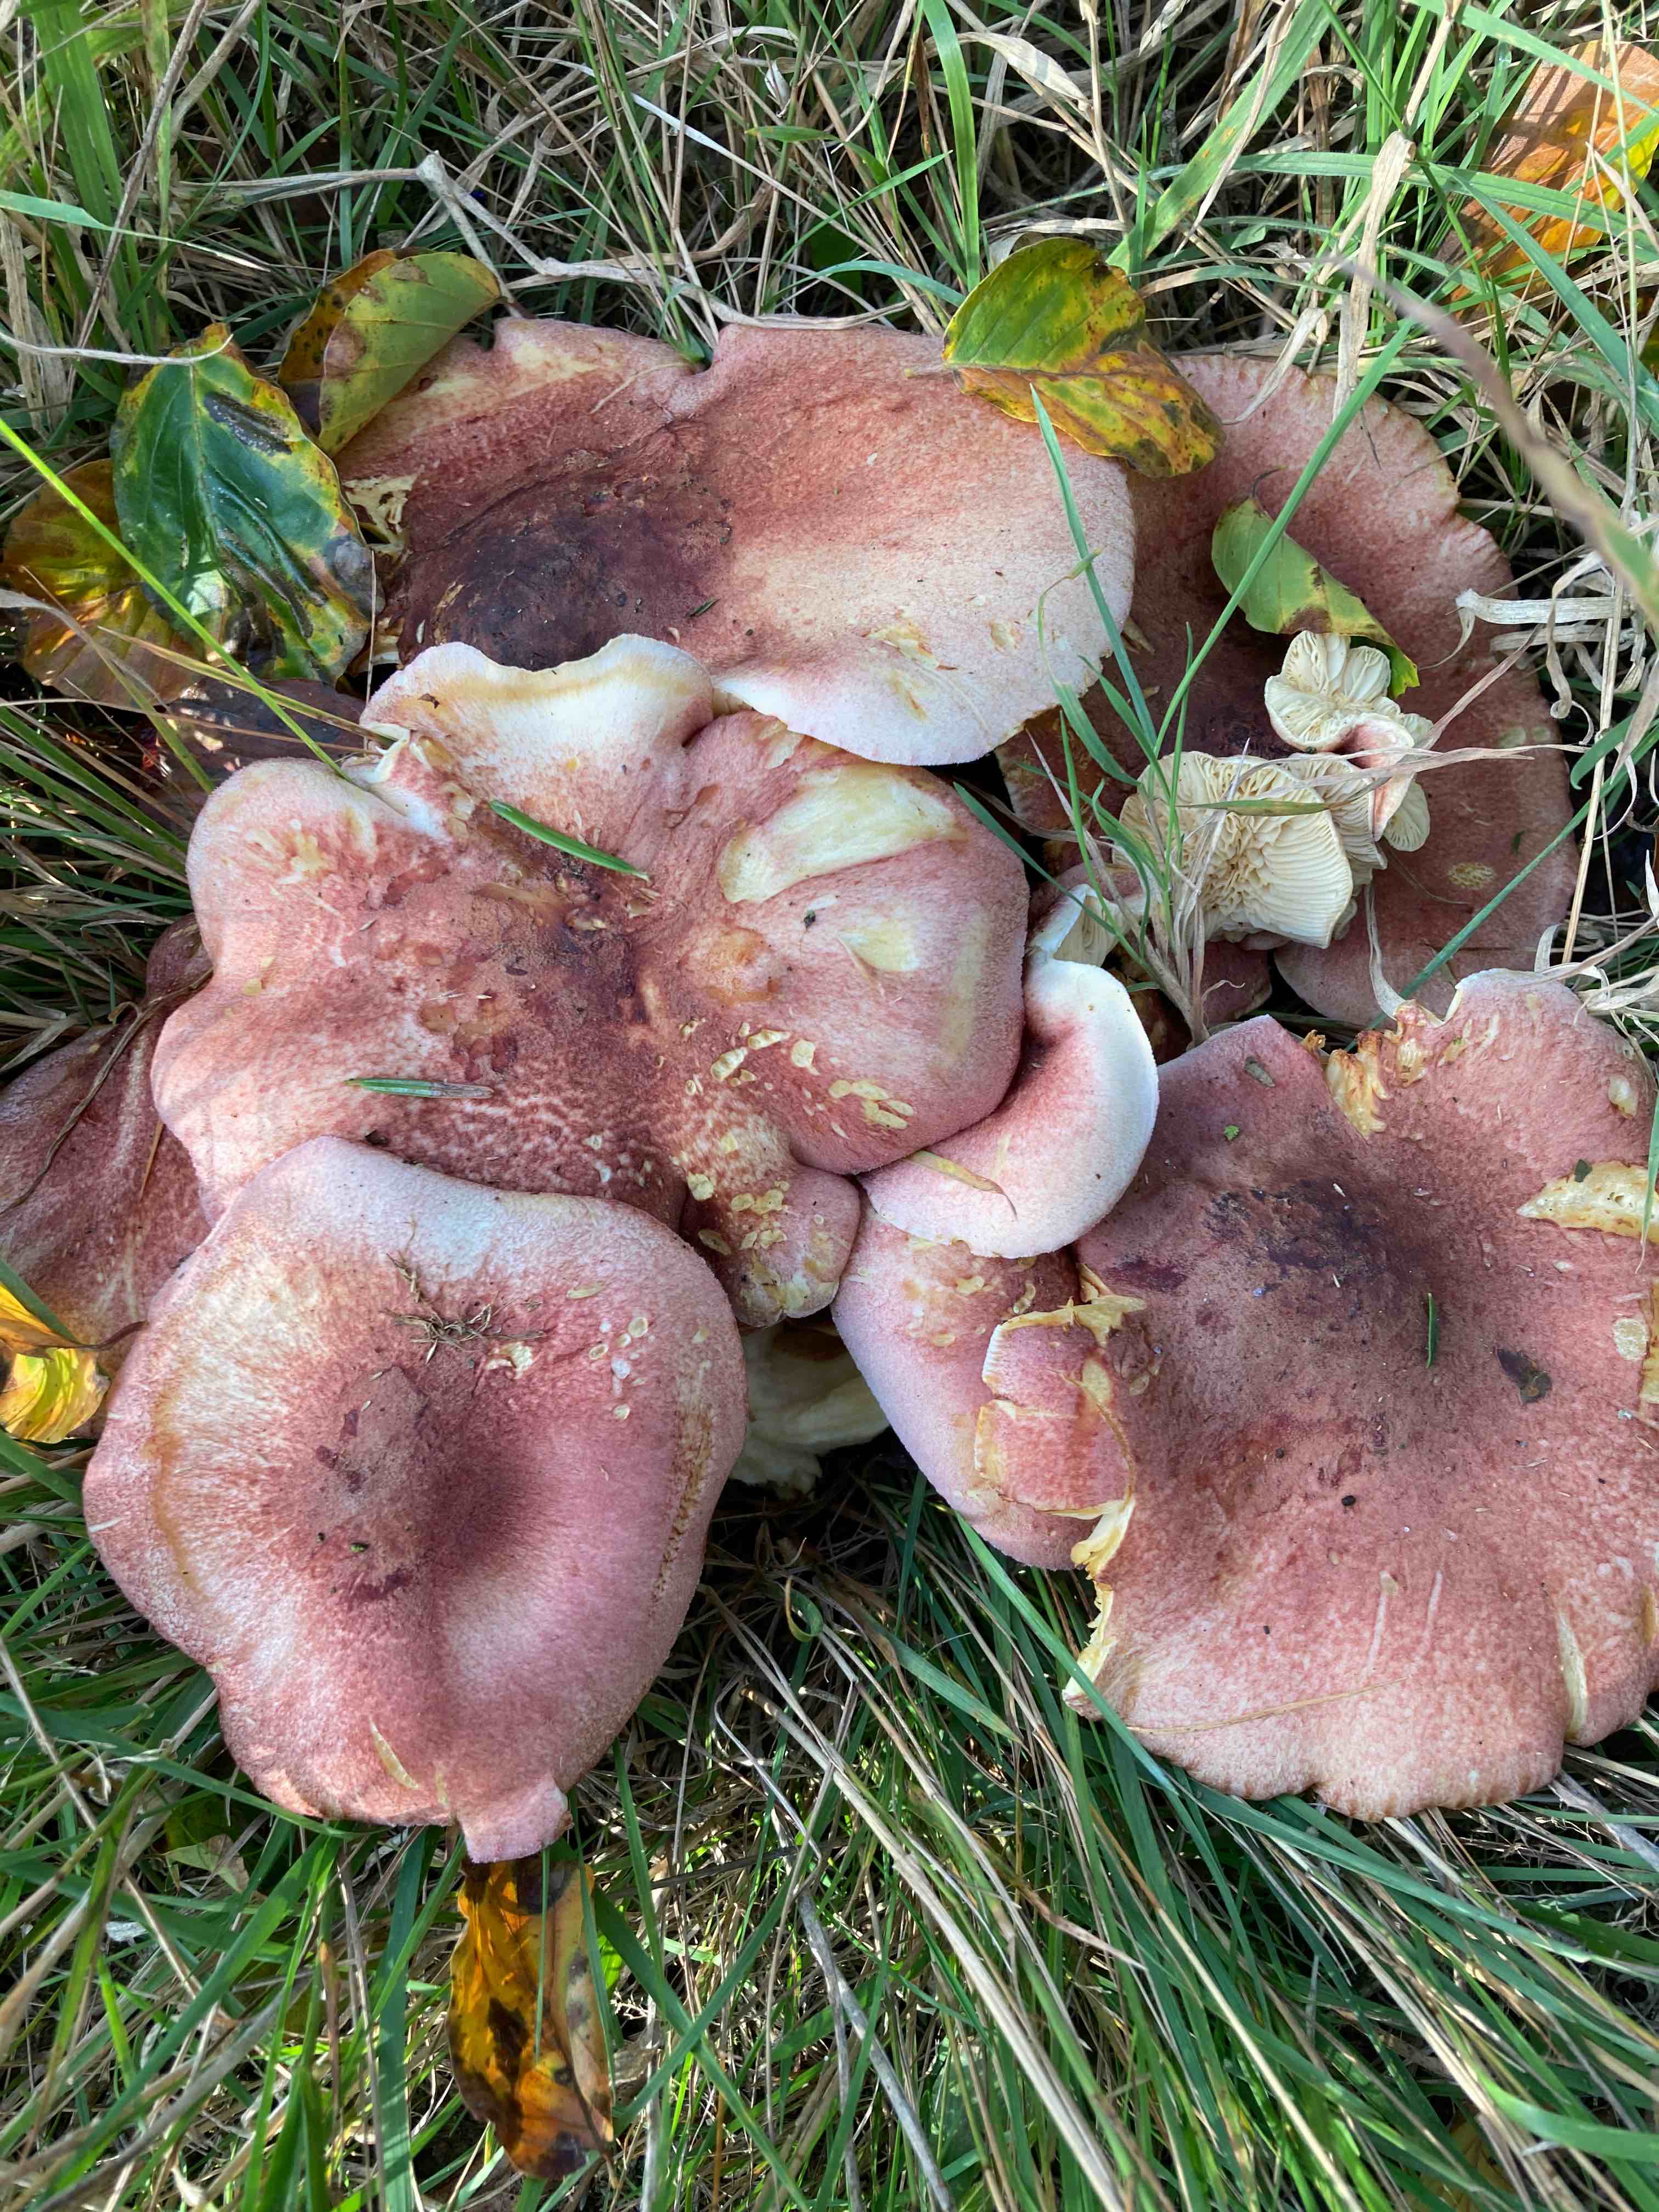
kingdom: Fungi
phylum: Basidiomycota
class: Agaricomycetes
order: Agaricales
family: Tricholomataceae
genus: Tricholomopsis
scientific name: Tricholomopsis rutilans
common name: purpur-væbnerhat
